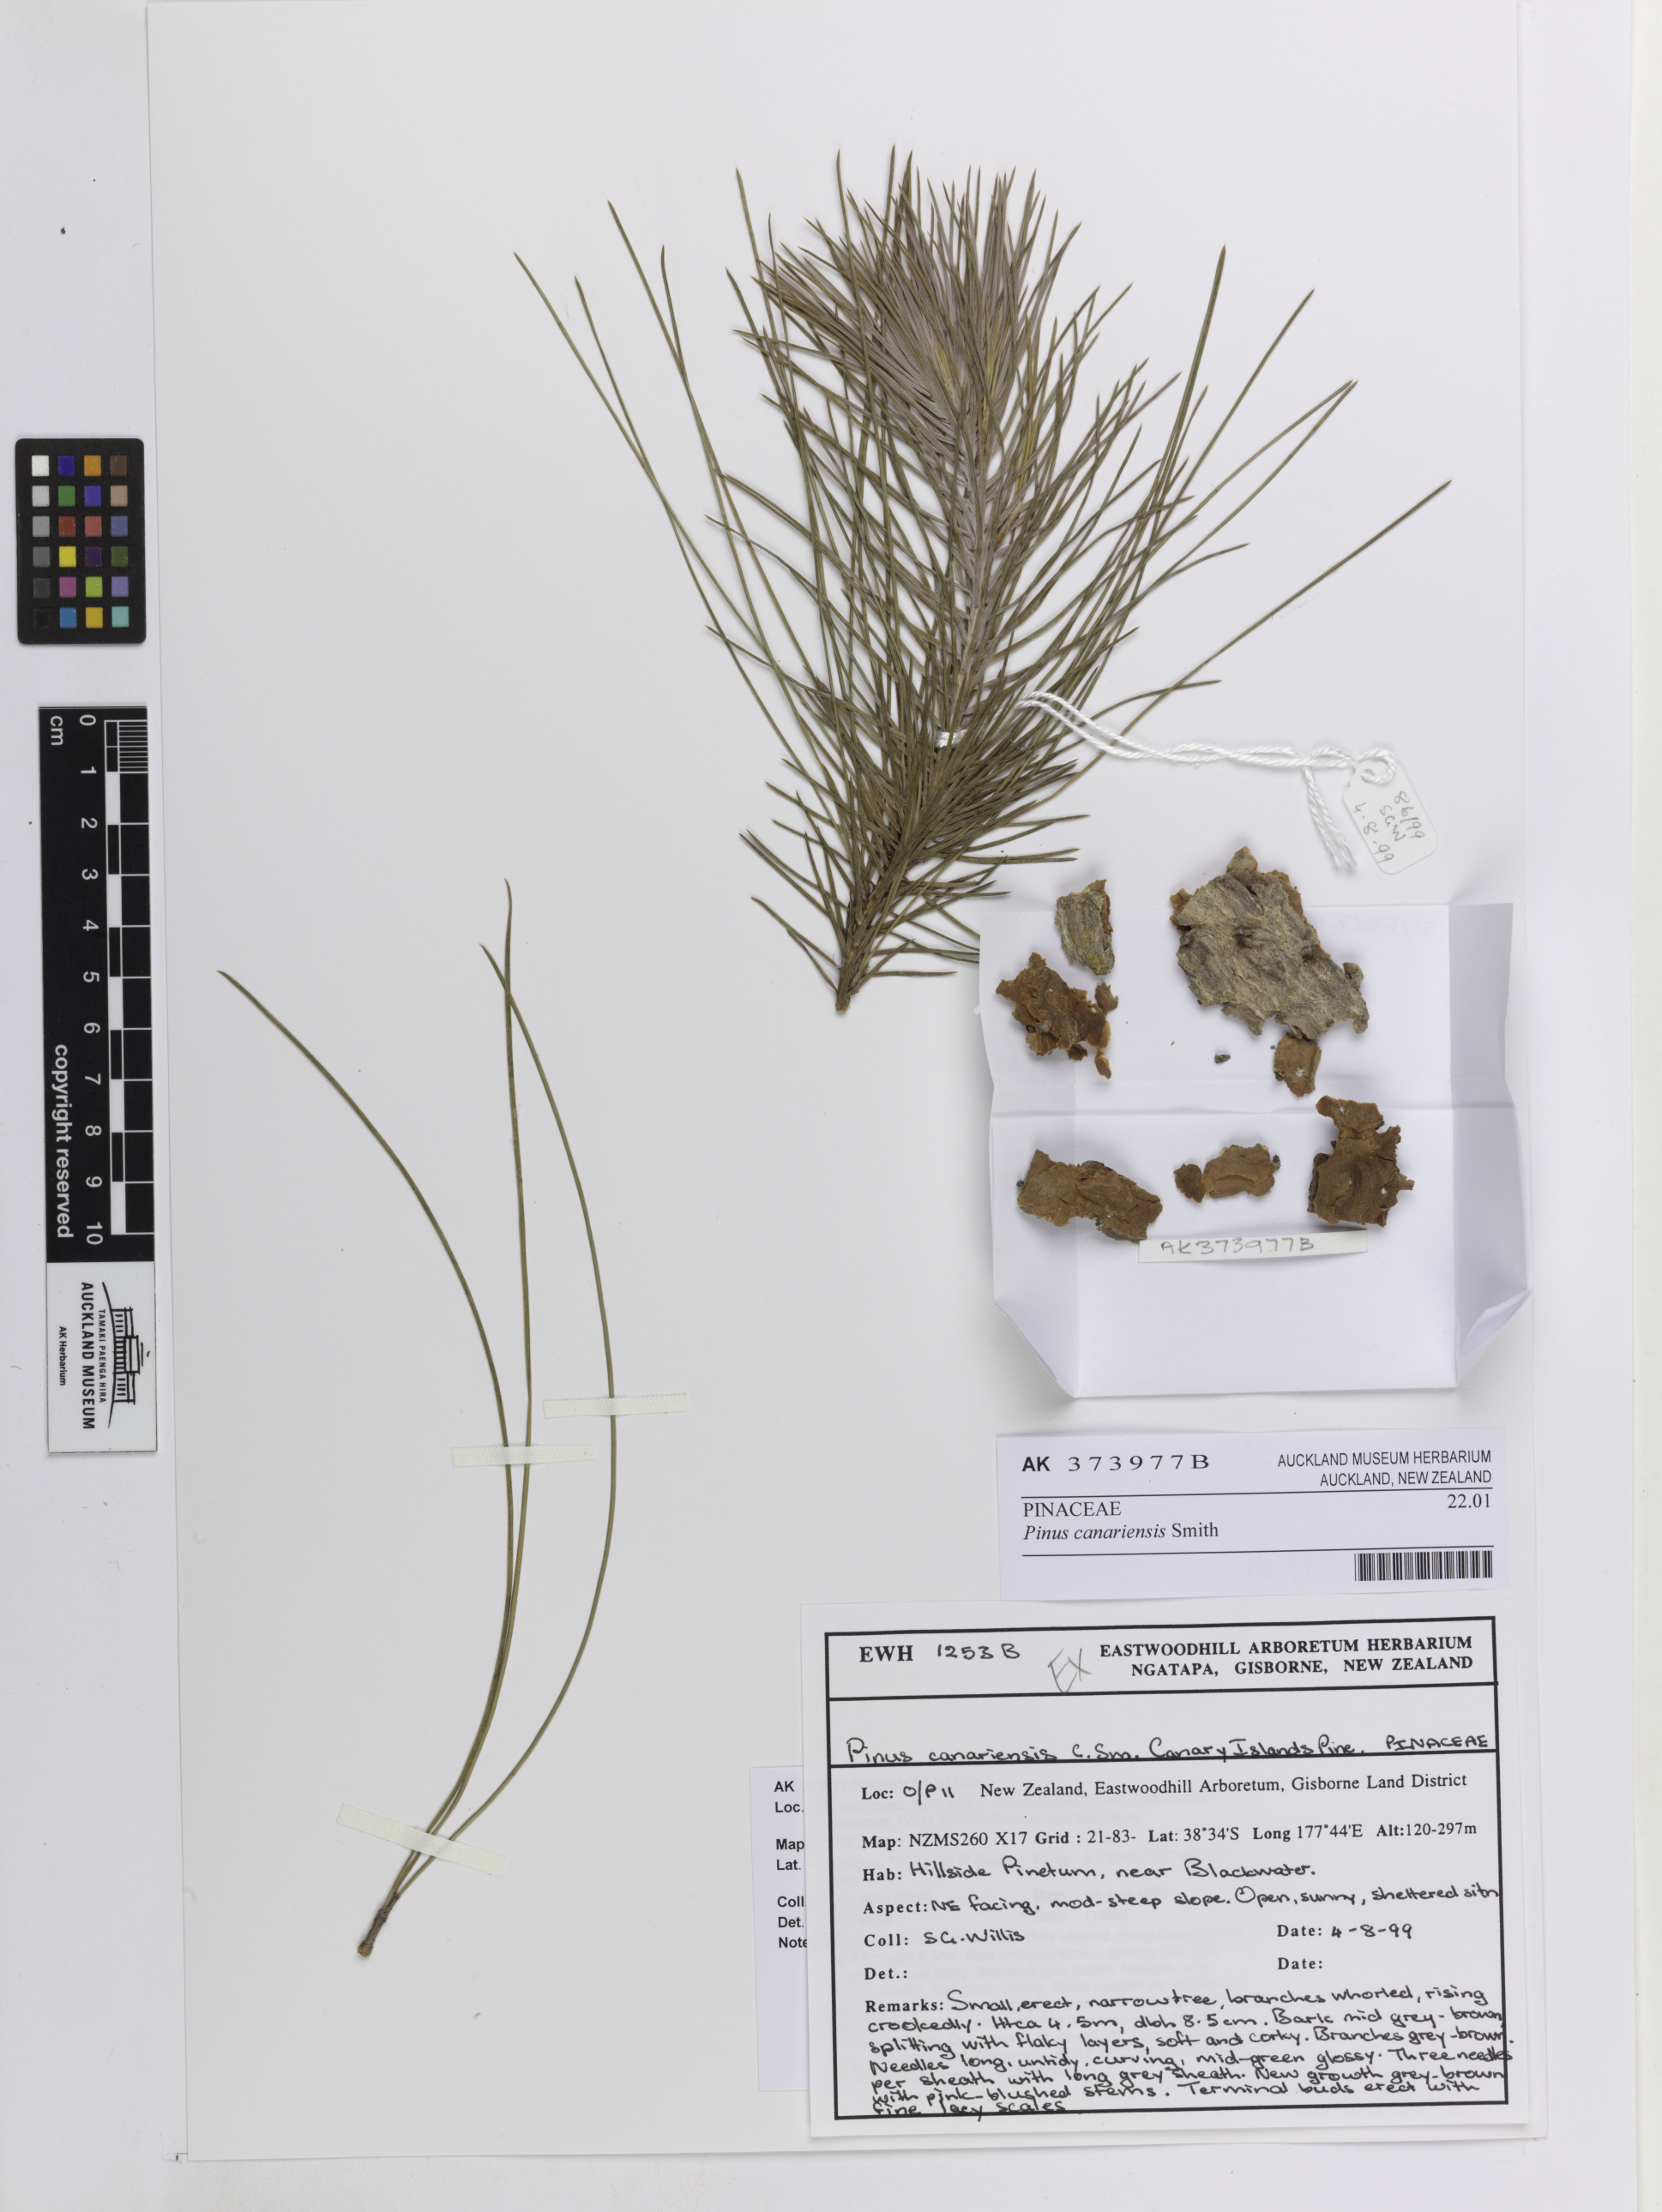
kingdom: Plantae
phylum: Tracheophyta
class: Pinopsida
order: Pinales
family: Pinaceae
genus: Pinus
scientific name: Pinus canariensis
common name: Canary islands pine
